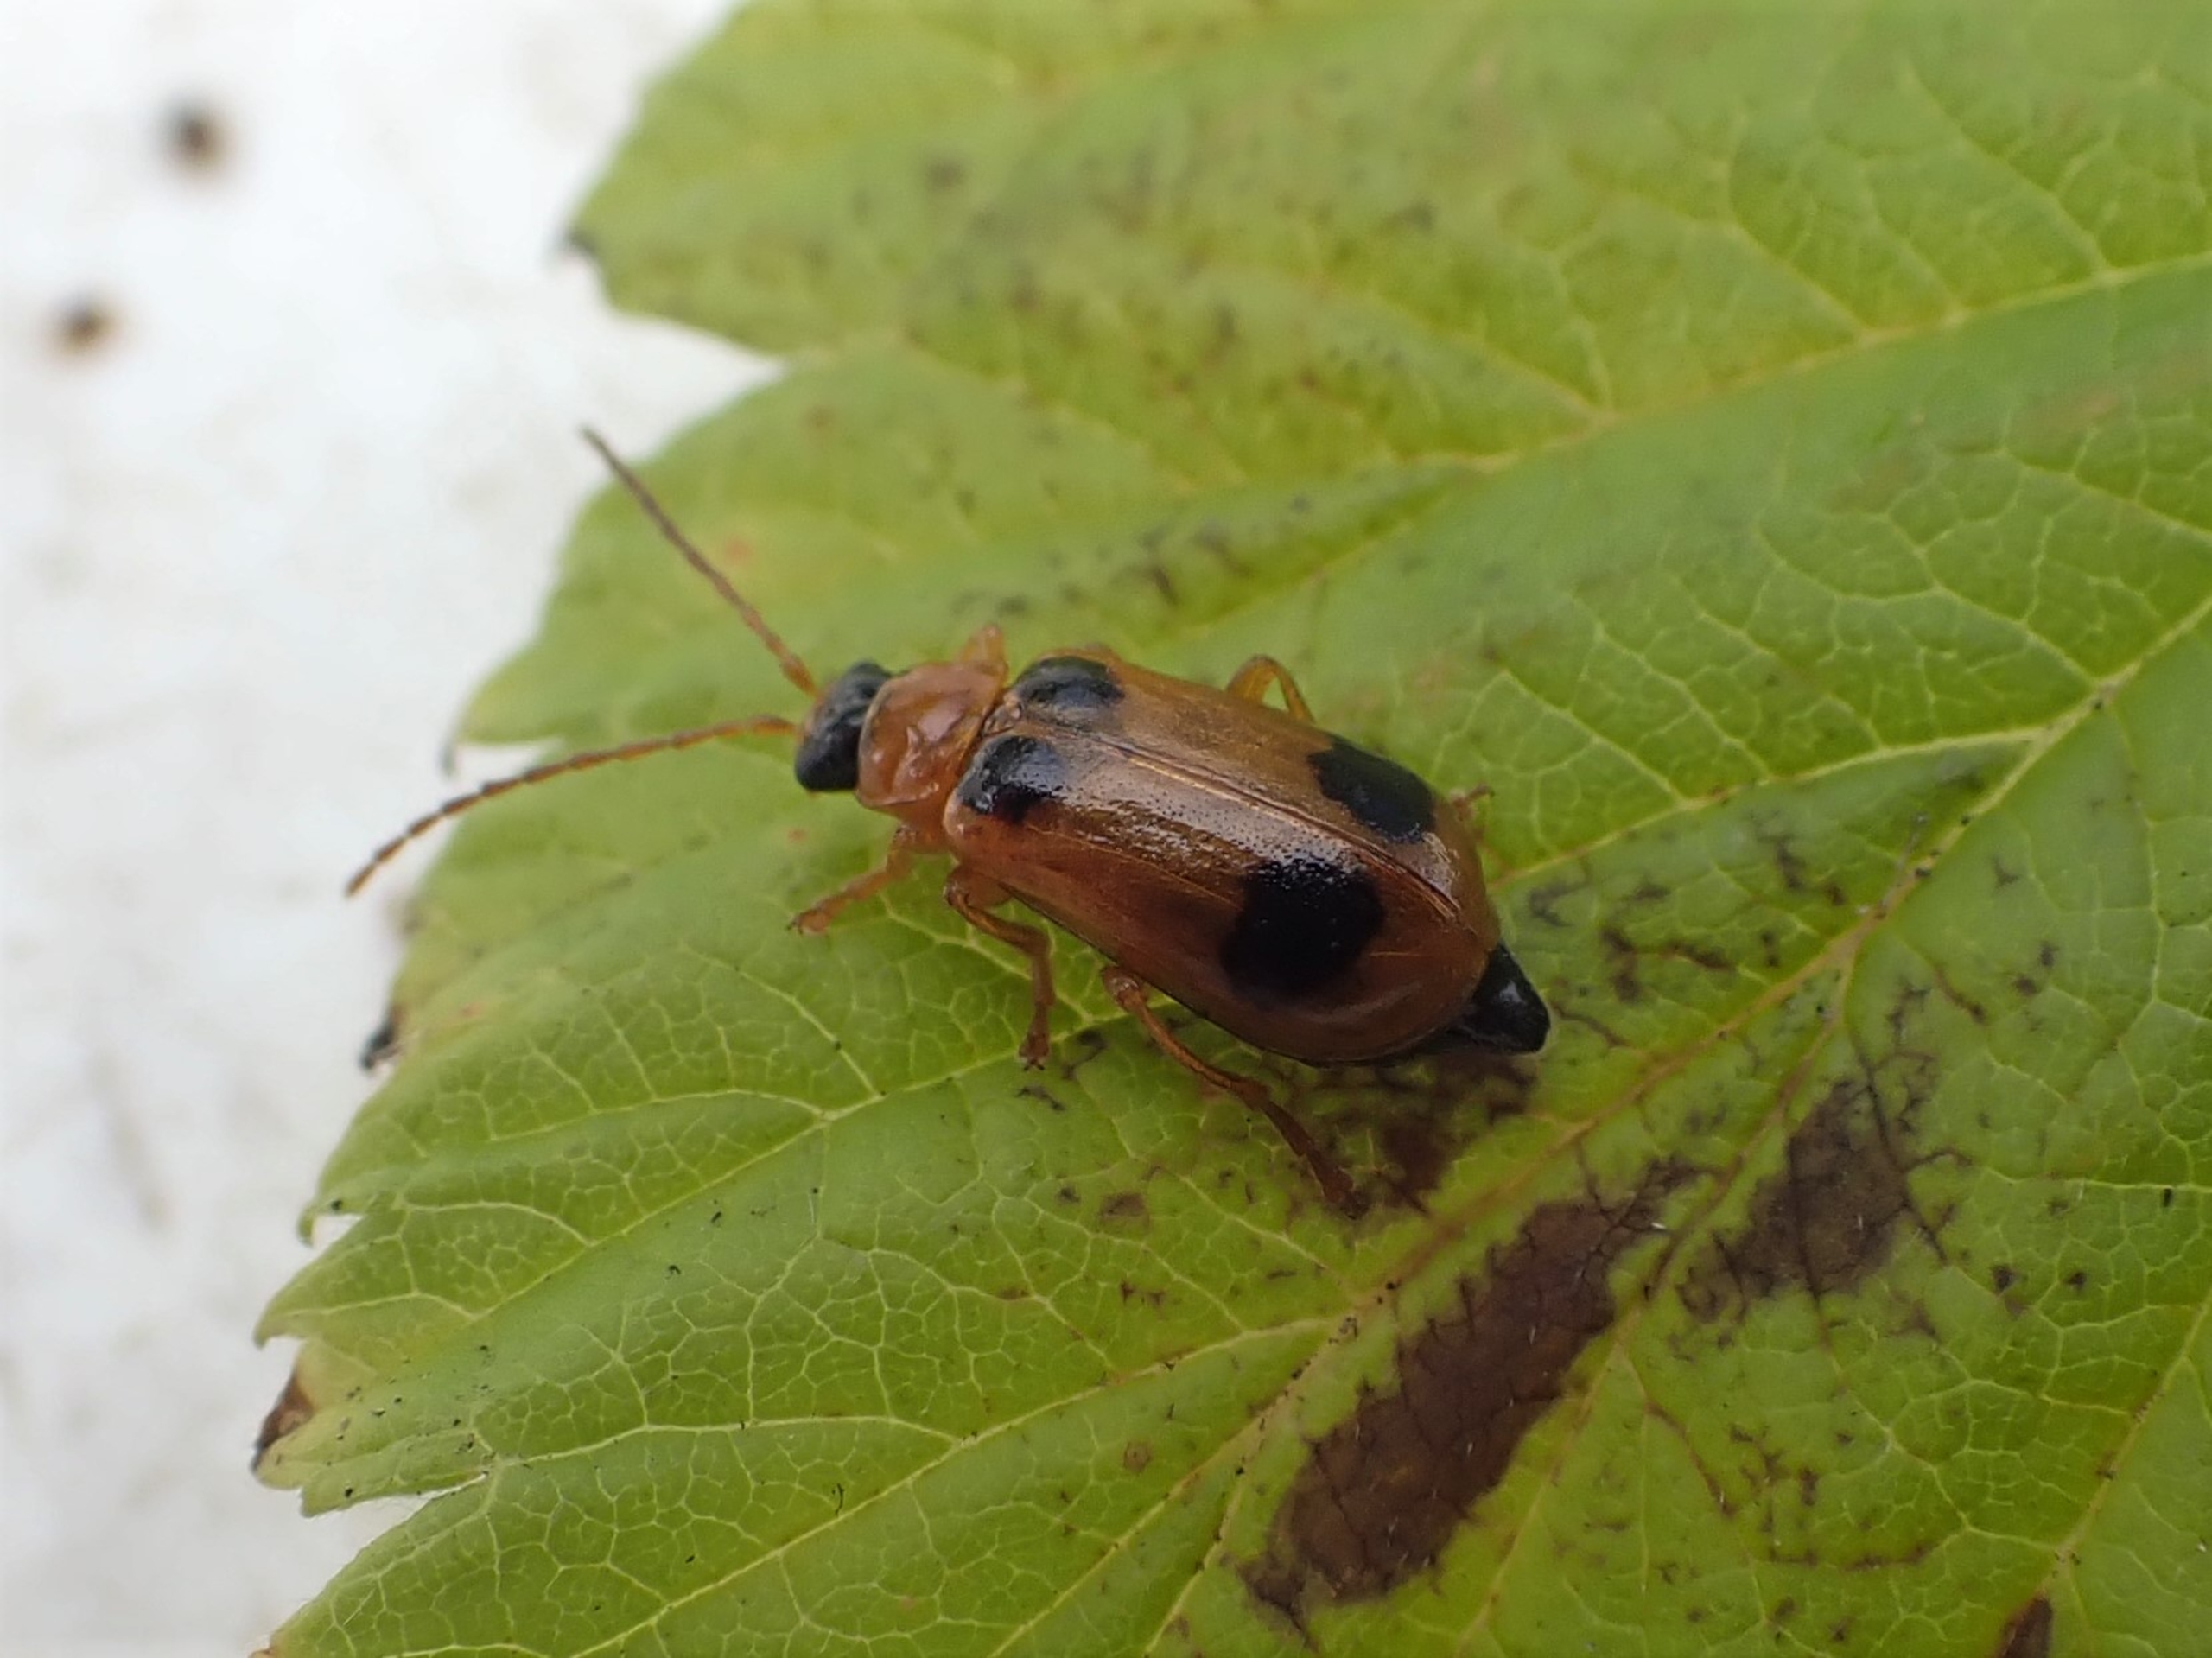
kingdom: Animalia
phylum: Arthropoda
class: Insecta
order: Coleoptera
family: Chrysomelidae
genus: Phyllobrotica
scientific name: Phyllobrotica quadrimaculata
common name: Sortplettet bladbille
